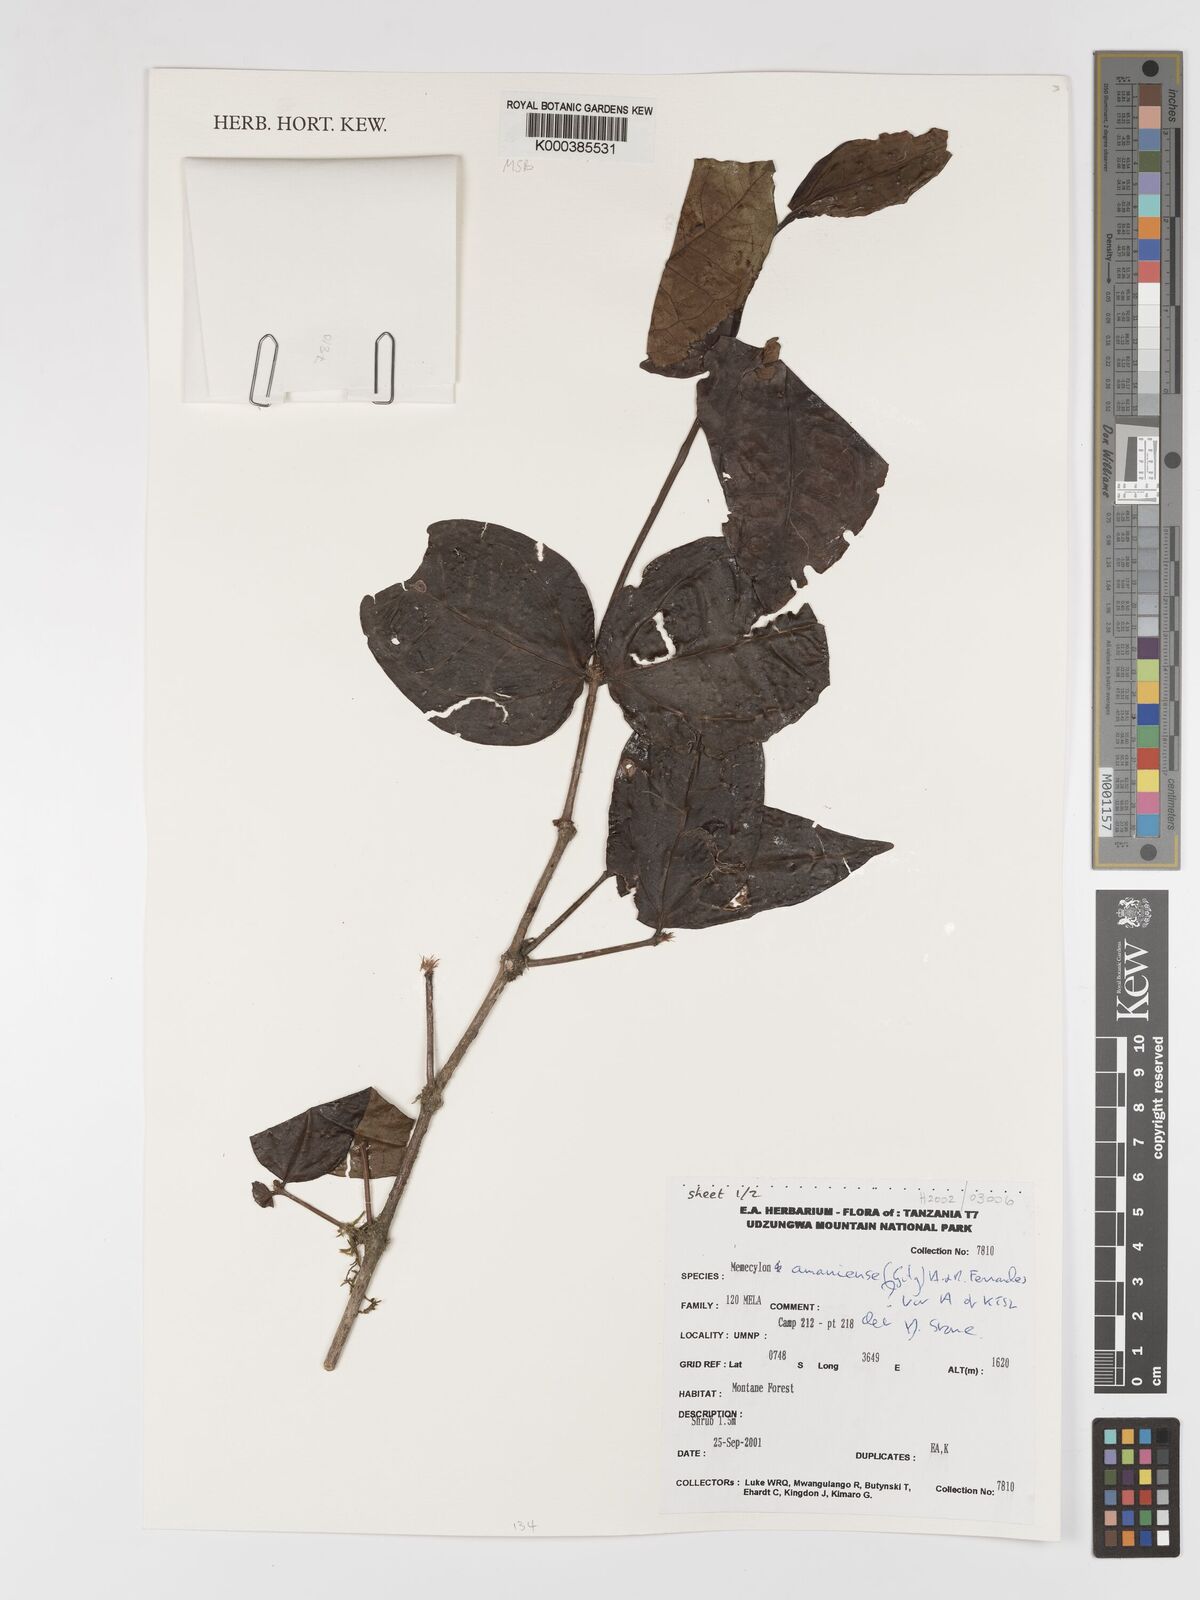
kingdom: Plantae
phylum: Tracheophyta
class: Magnoliopsida
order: Myrtales
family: Melastomataceae
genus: Warneckea
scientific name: Warneckea amaniensis
